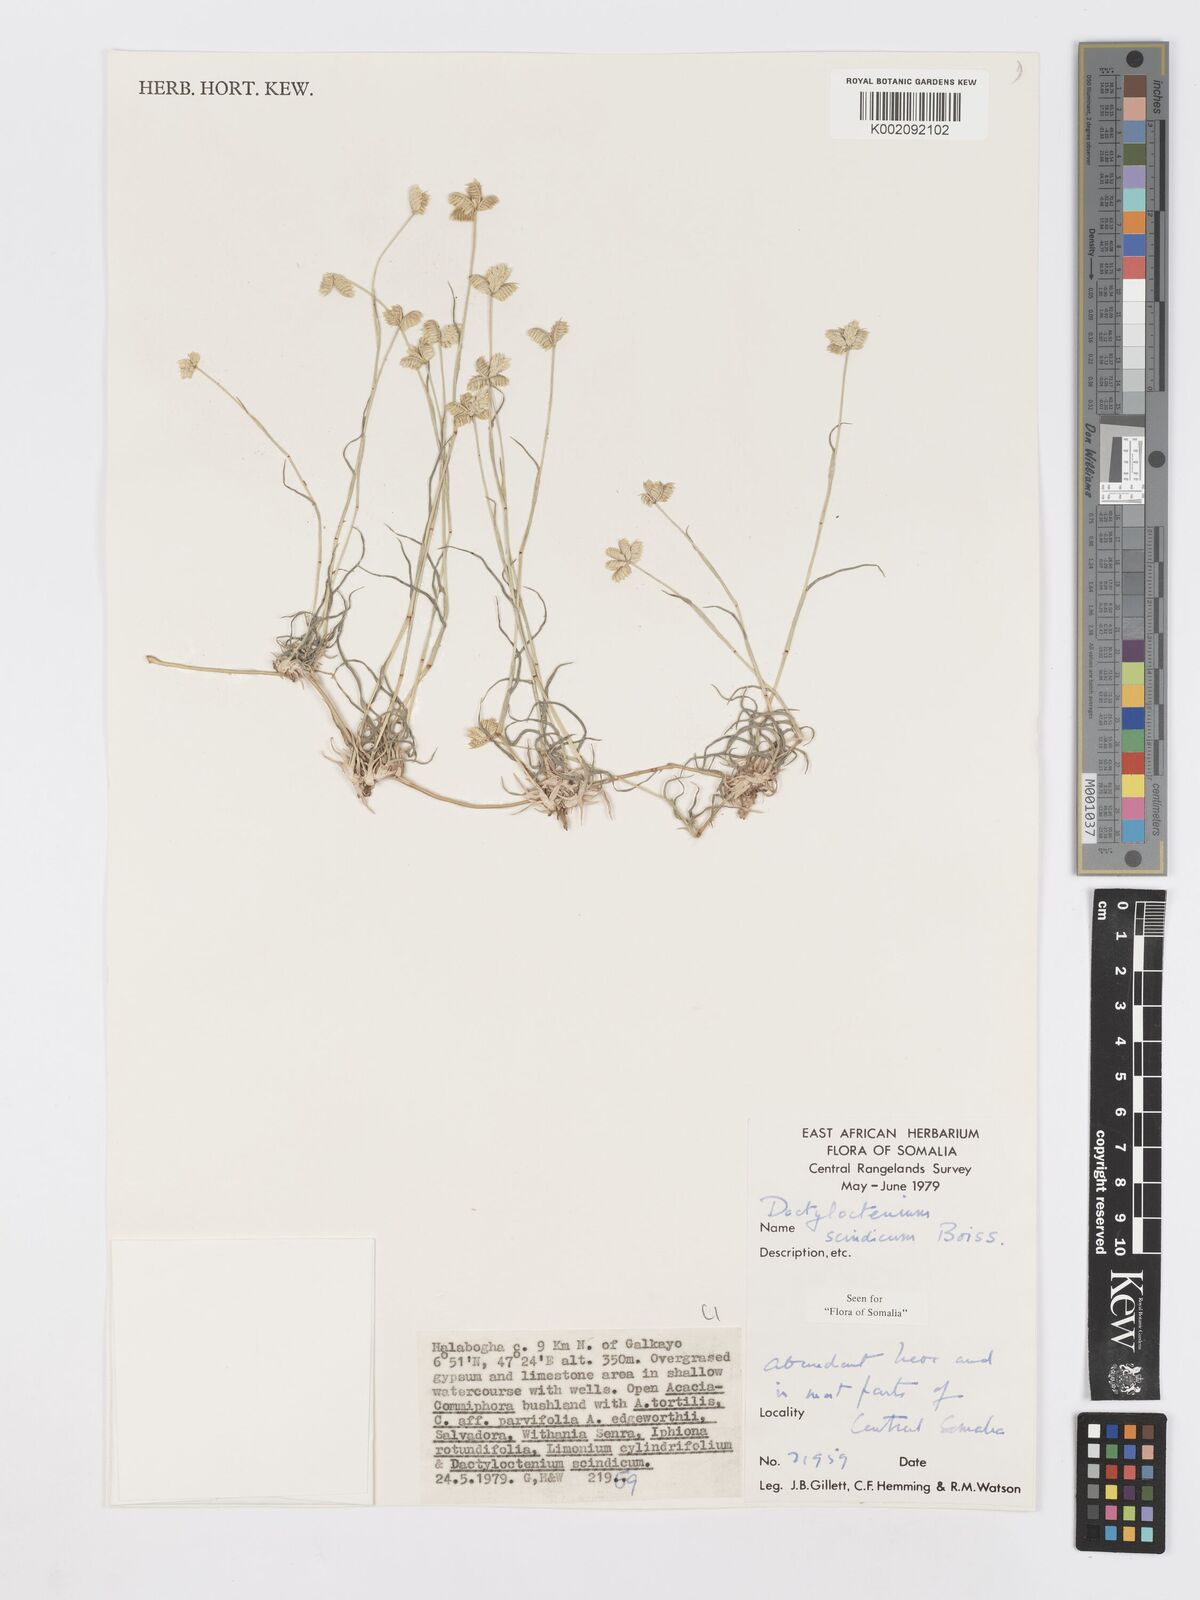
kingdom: Plantae
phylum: Tracheophyta
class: Liliopsida
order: Poales
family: Poaceae
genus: Dactyloctenium
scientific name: Dactyloctenium scindicum
